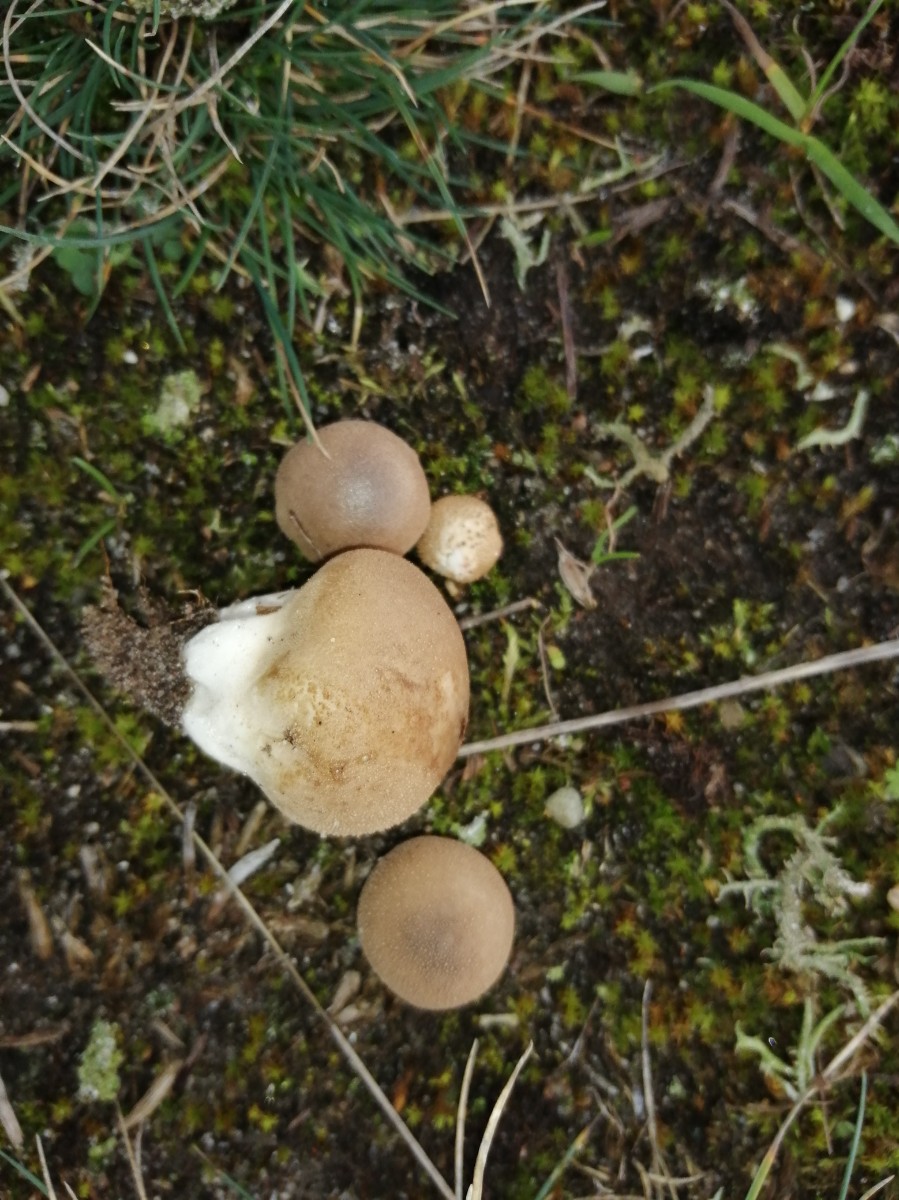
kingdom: Fungi
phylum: Basidiomycota
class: Agaricomycetes
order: Agaricales
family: Lycoperdaceae
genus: Apioperdon
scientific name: Apioperdon pyriforme
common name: pære-støvbold
